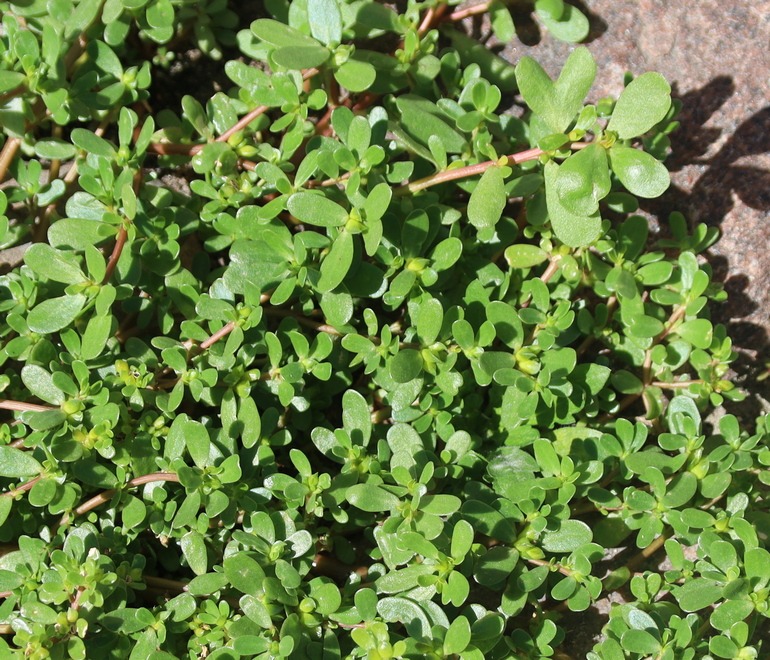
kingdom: Plantae
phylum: Tracheophyta
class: Magnoliopsida
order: Caryophyllales
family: Portulacaceae
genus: Portulaca
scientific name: Portulaca oleracea
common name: Vild portulak
